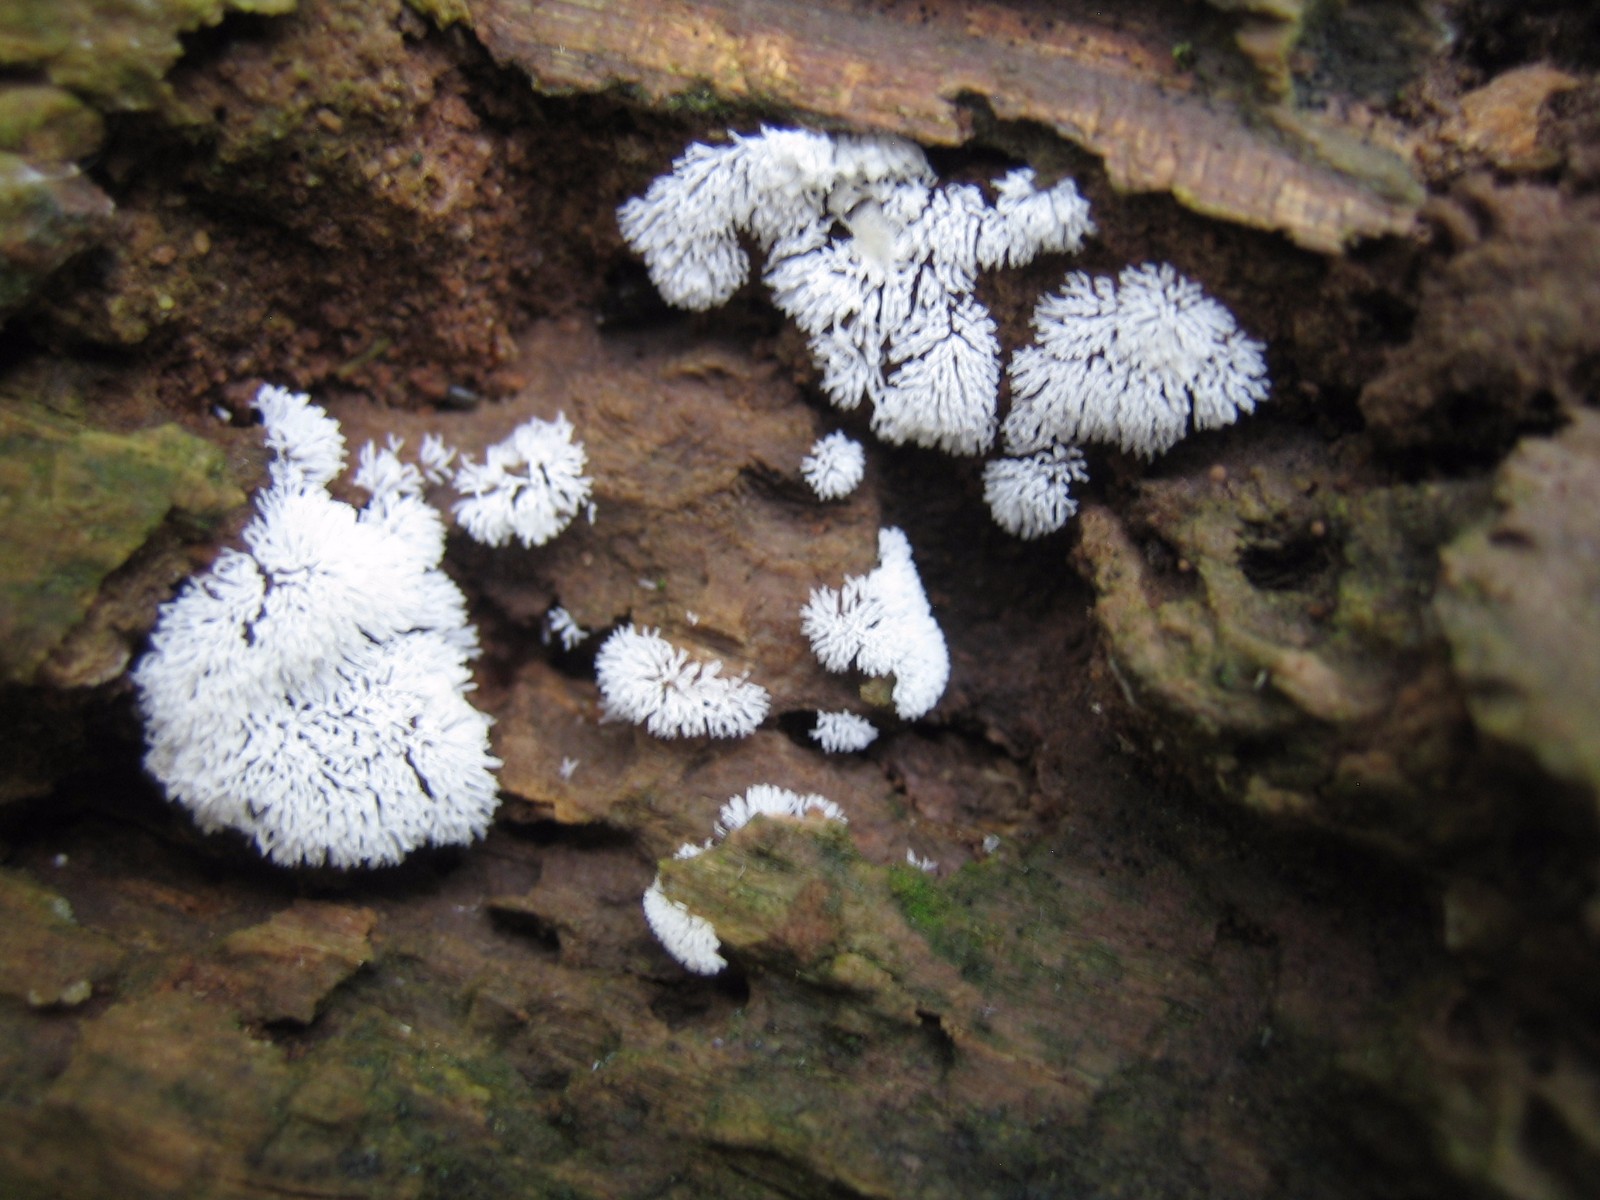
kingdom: Protozoa
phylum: Mycetozoa
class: Protosteliomycetes
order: Ceratiomyxales
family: Ceratiomyxaceae
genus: Ceratiomyxa
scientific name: Ceratiomyxa fruticulosa
